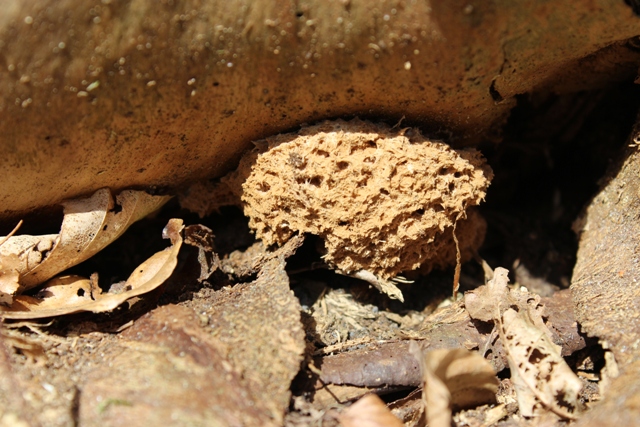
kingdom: Fungi
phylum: Basidiomycota
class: Agaricomycetes
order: Polyporales
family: Dacryobolaceae
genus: Postia
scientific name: Postia ptychogaster
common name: støvende kødporesvamp
